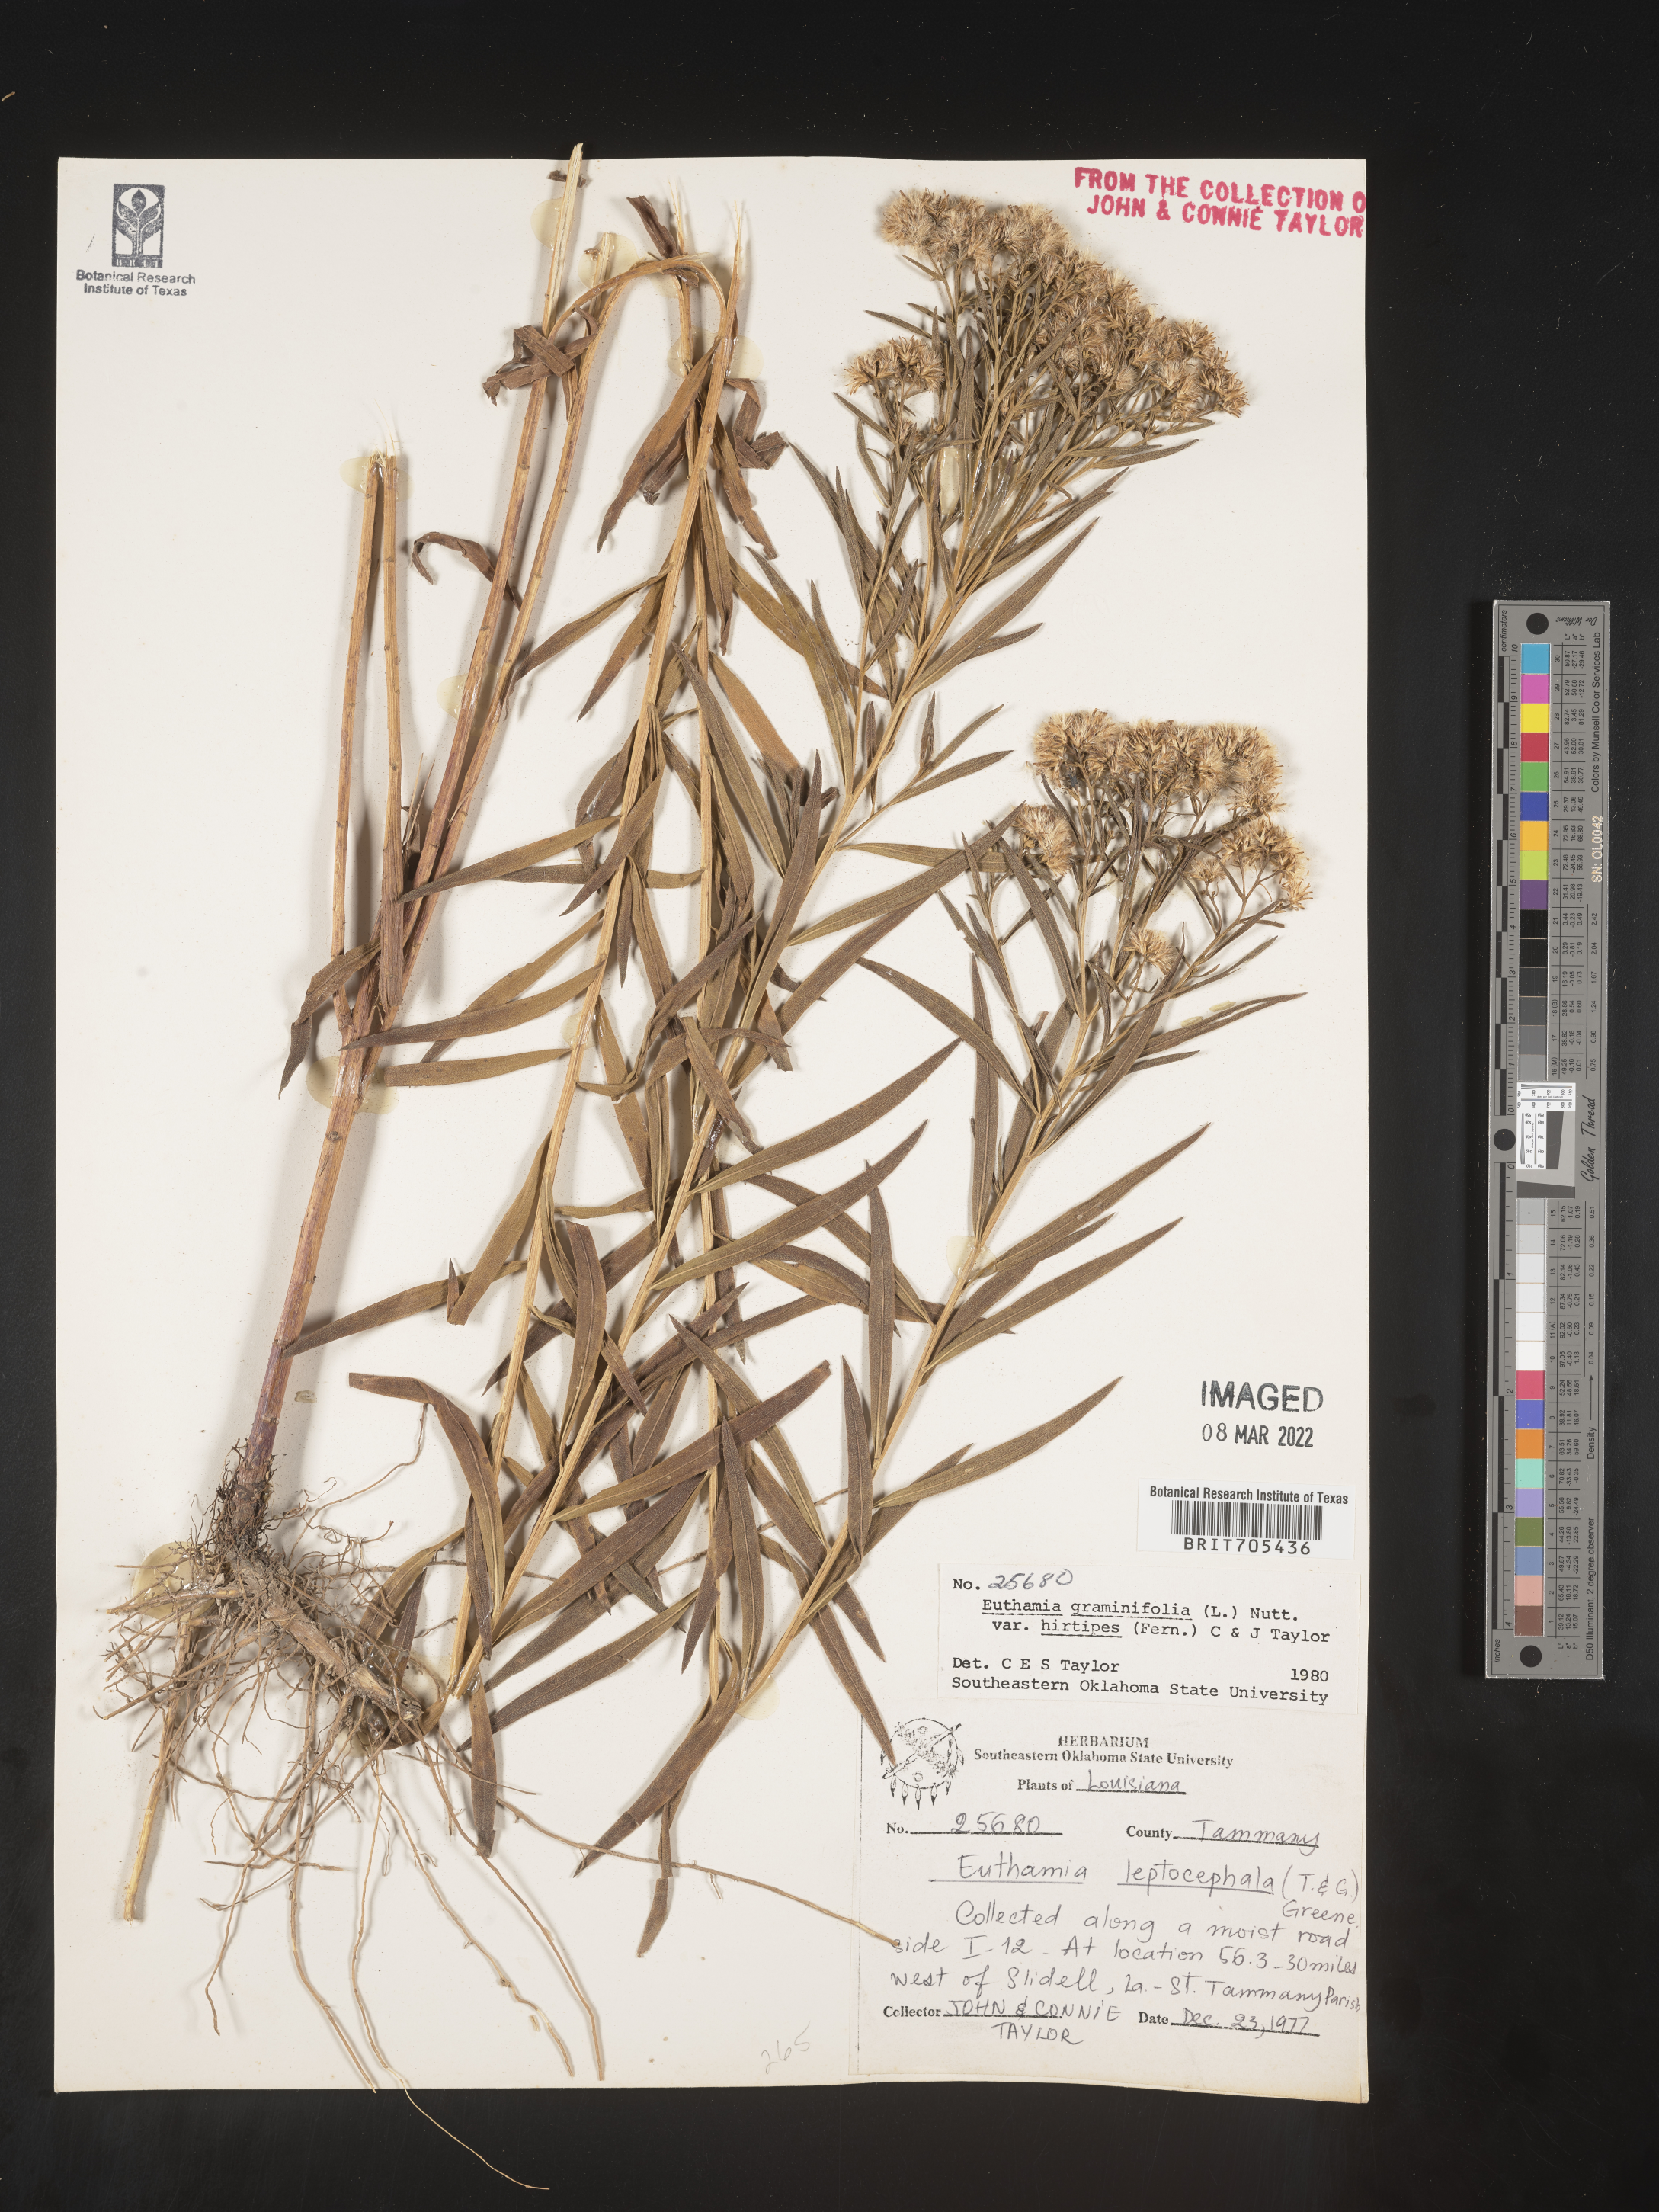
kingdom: Plantae
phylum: Tracheophyta
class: Magnoliopsida
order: Asterales
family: Asteraceae
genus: Euthamia
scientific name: Euthamia
